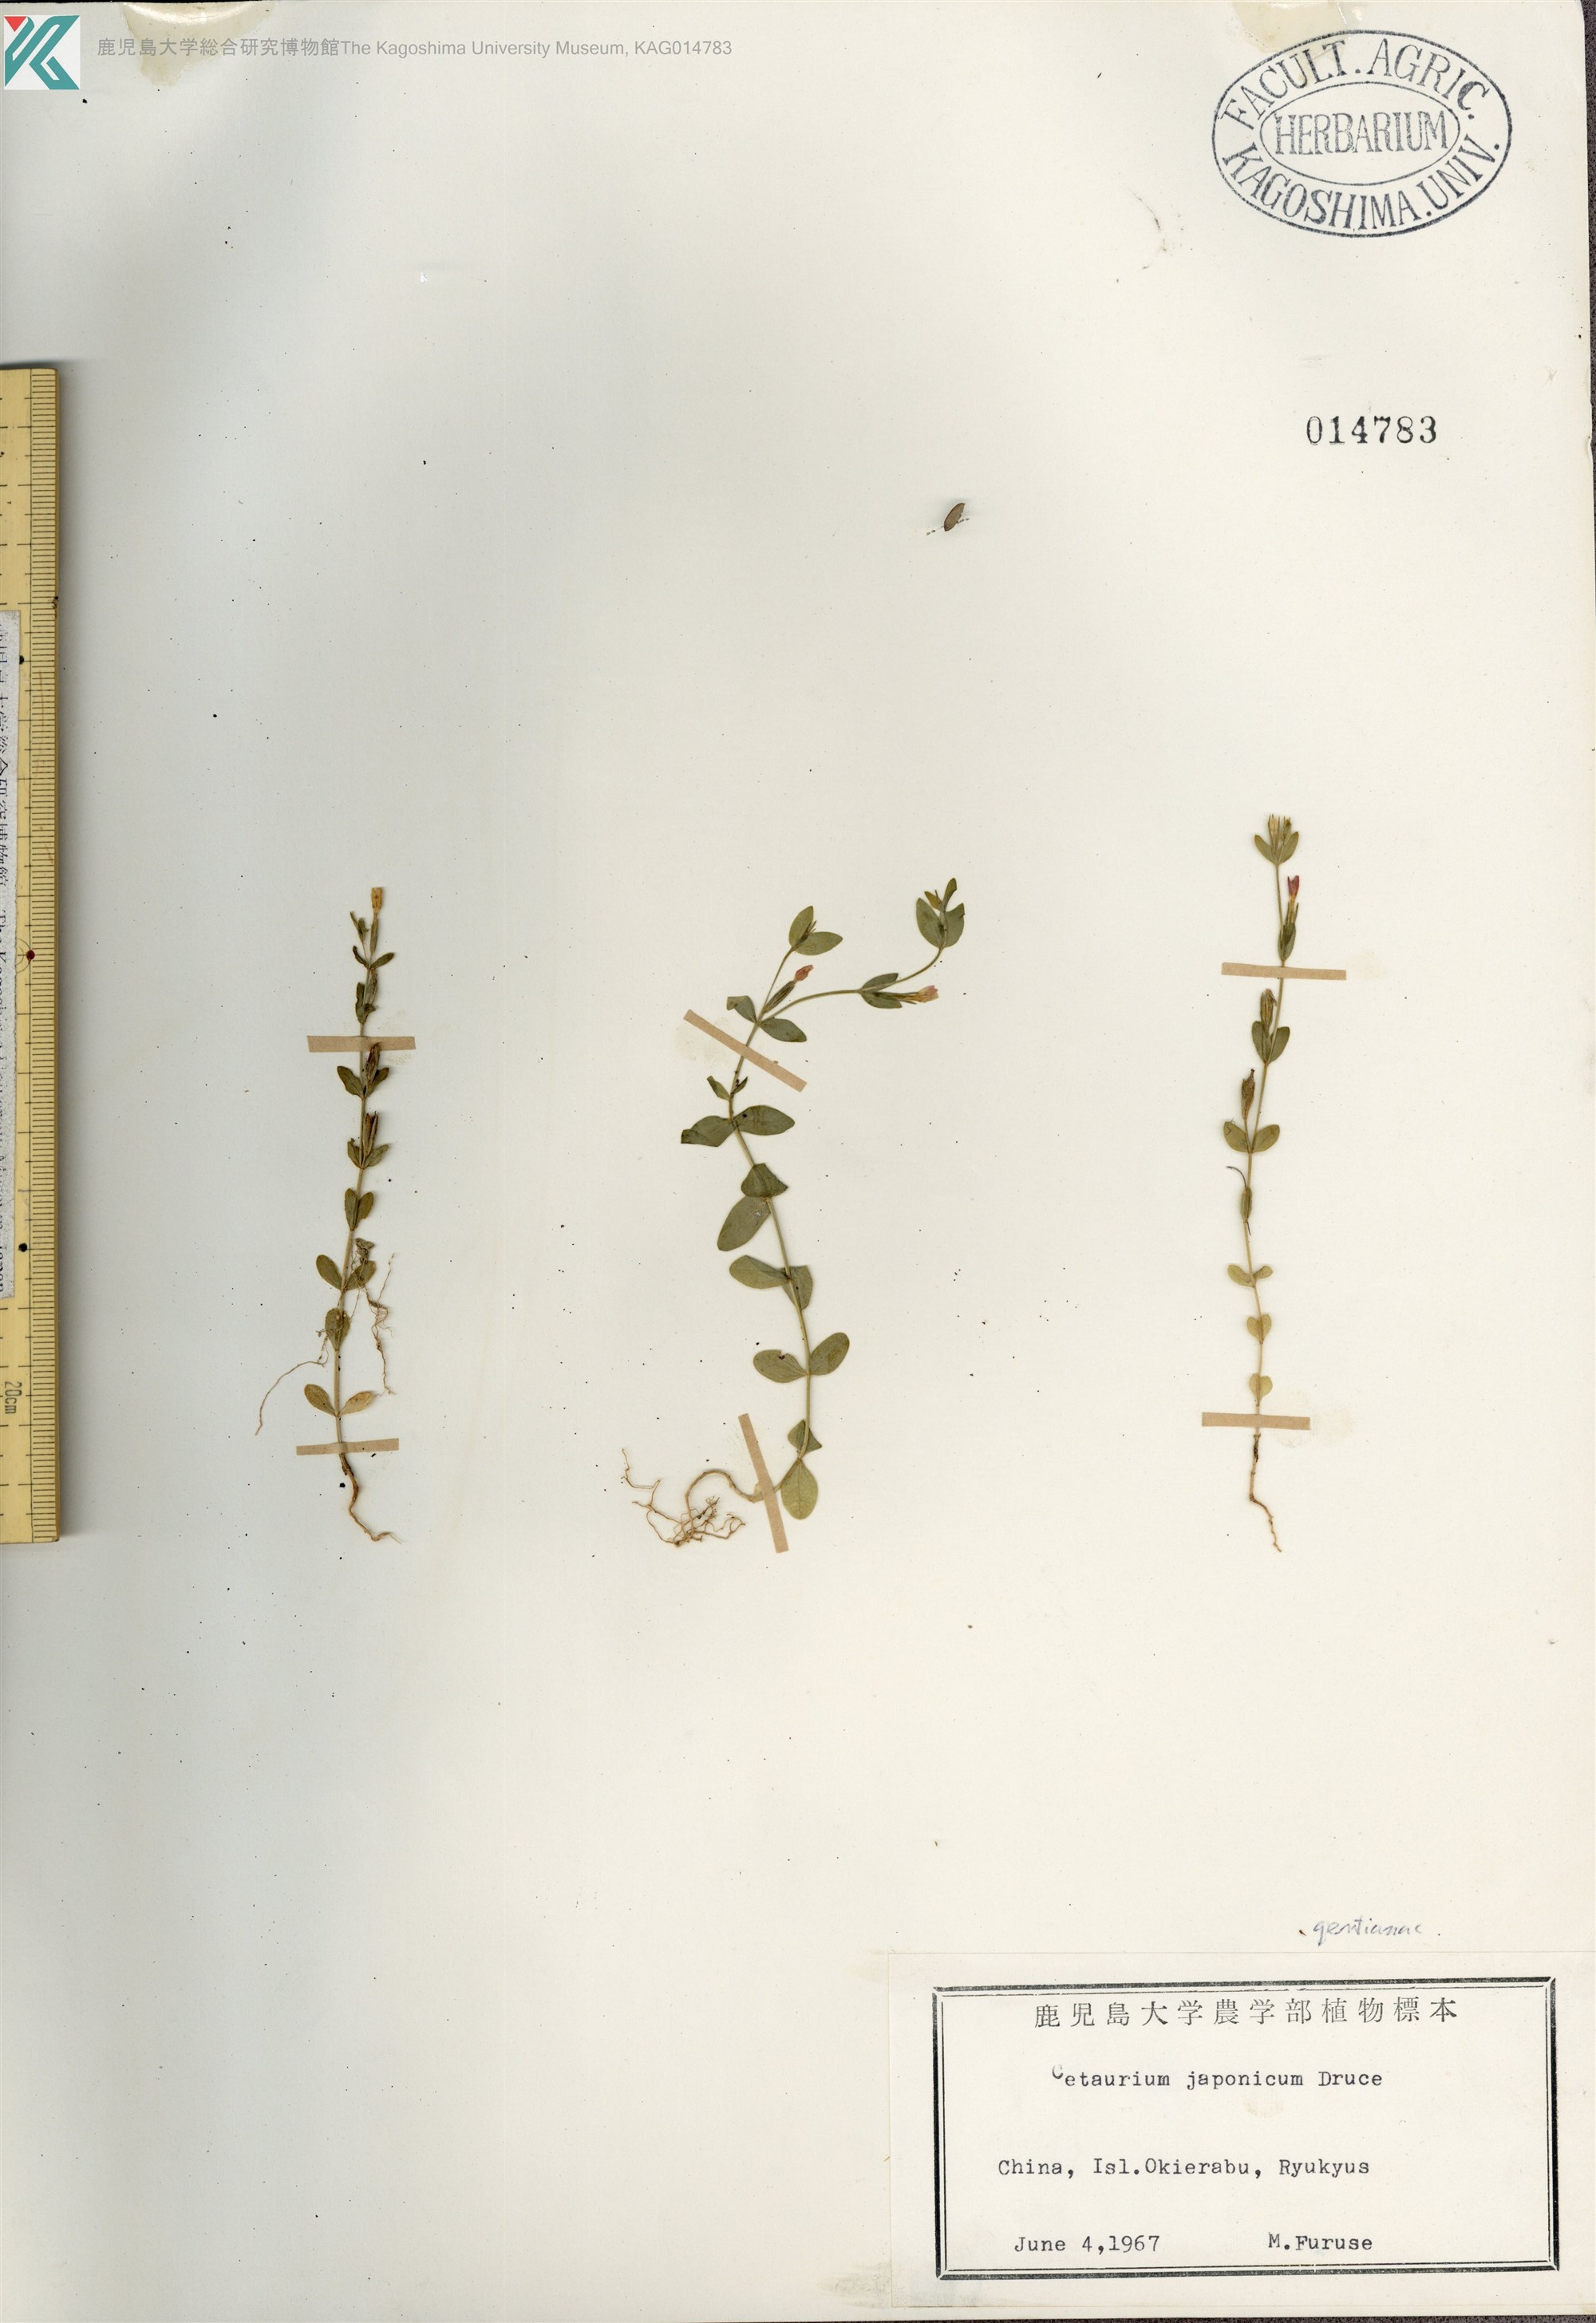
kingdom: Plantae
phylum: Tracheophyta
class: Magnoliopsida
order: Gentianales
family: Gentianaceae
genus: Schenkia
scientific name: Schenkia japonica
